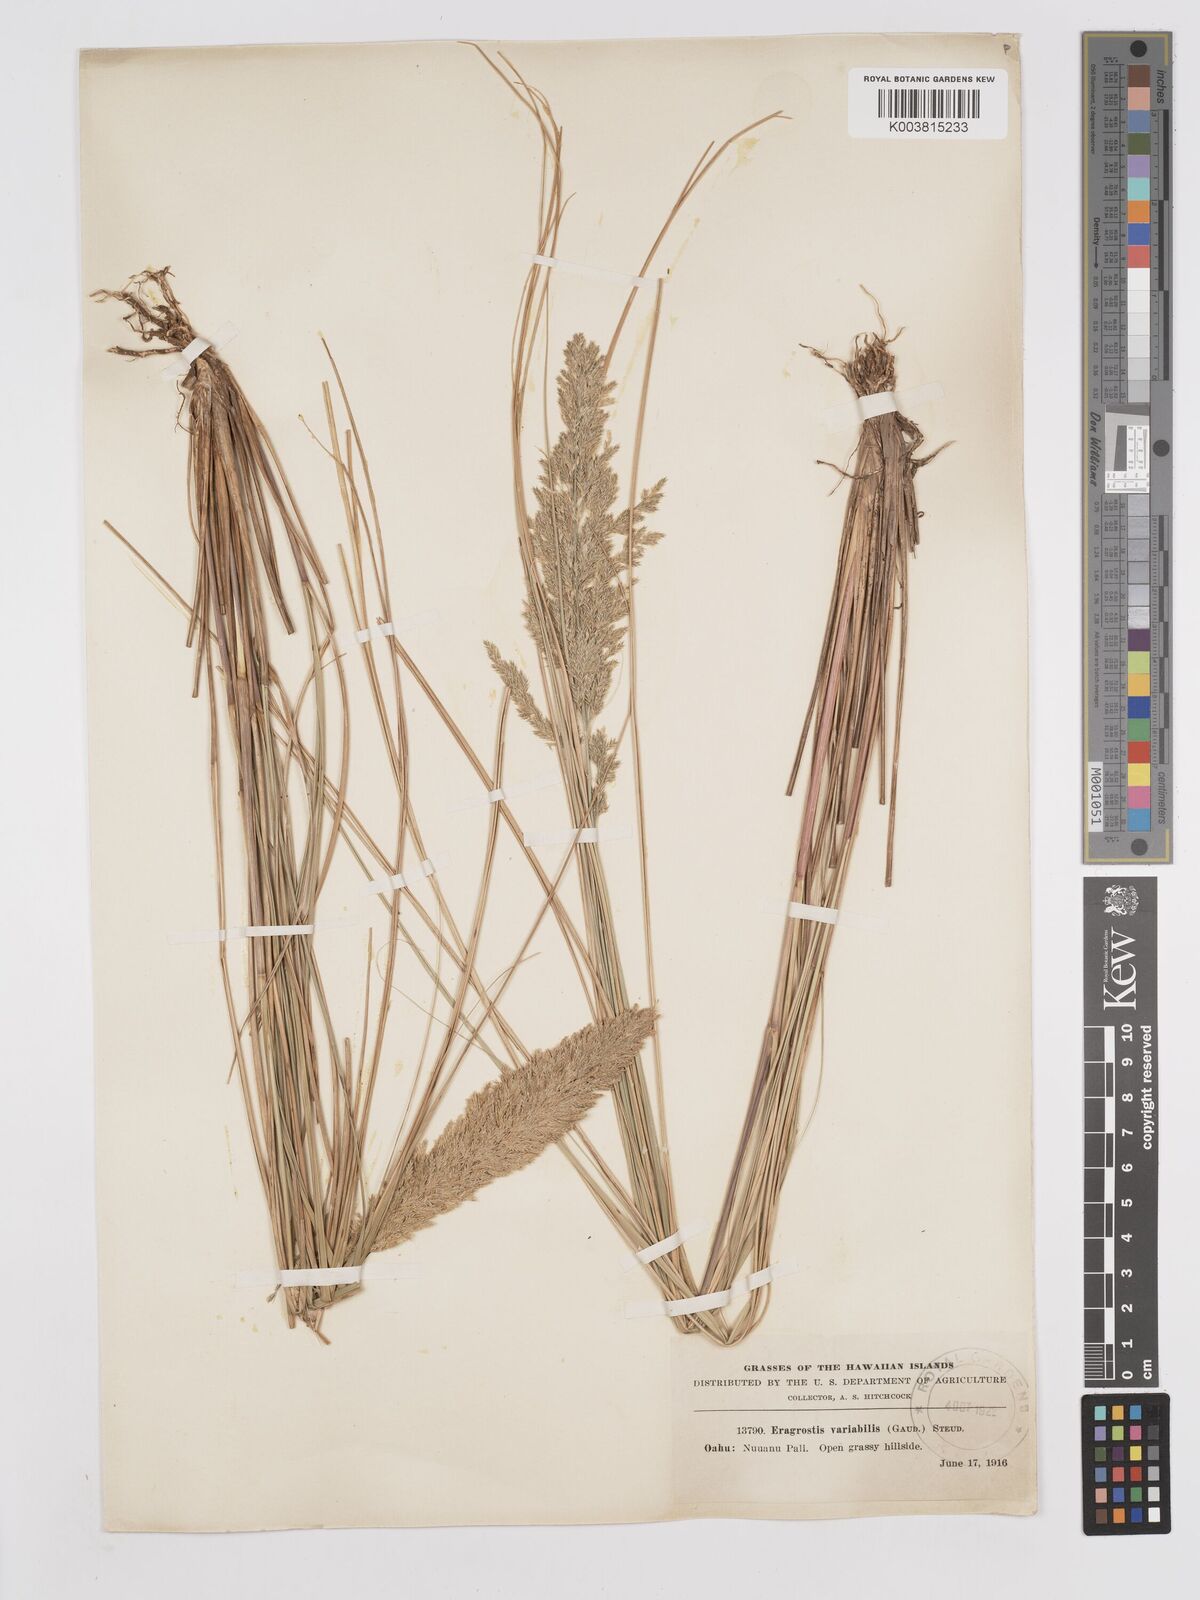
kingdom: Plantae
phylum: Tracheophyta
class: Liliopsida
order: Poales
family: Poaceae
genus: Eragrostis
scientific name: Eragrostis variabilis
